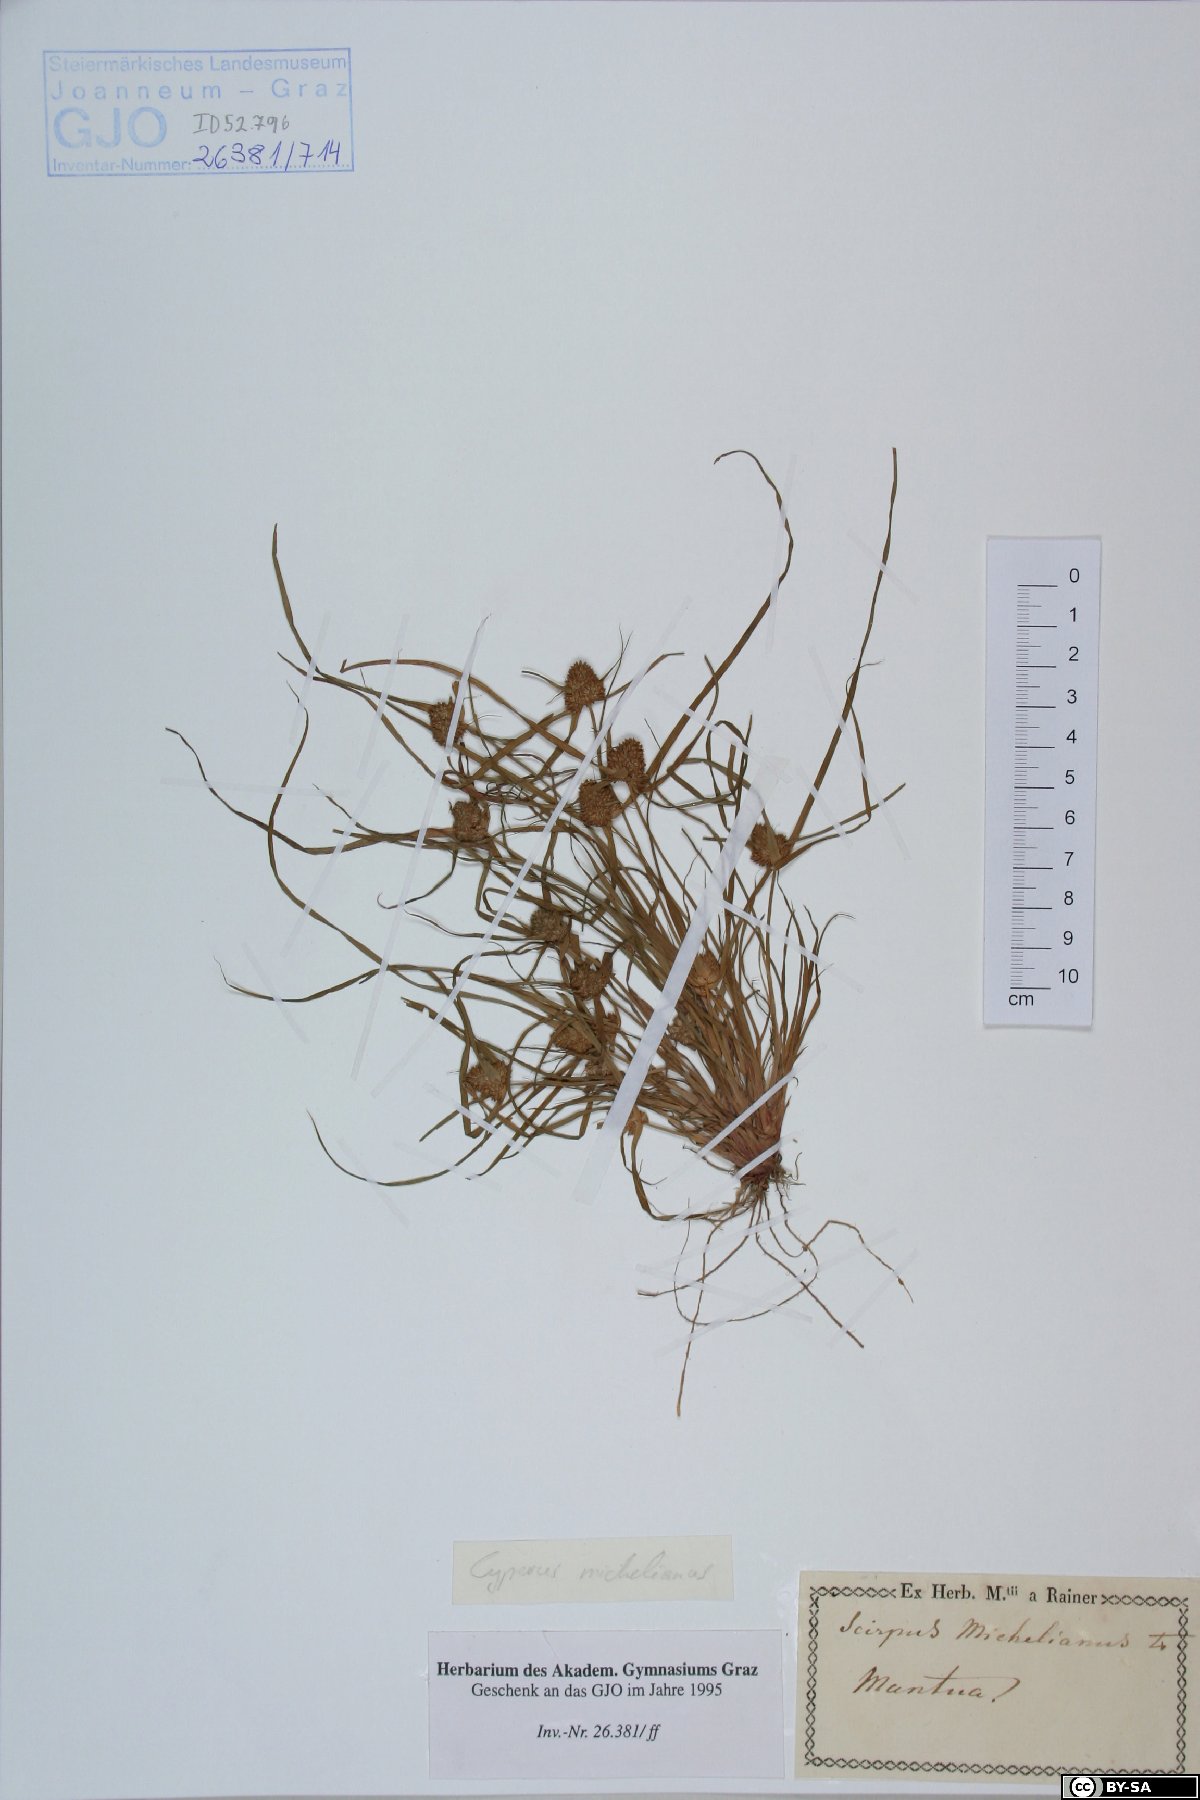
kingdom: Plantae
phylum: Tracheophyta
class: Liliopsida
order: Poales
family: Cyperaceae
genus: Cyperus
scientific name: Cyperus michelianus
